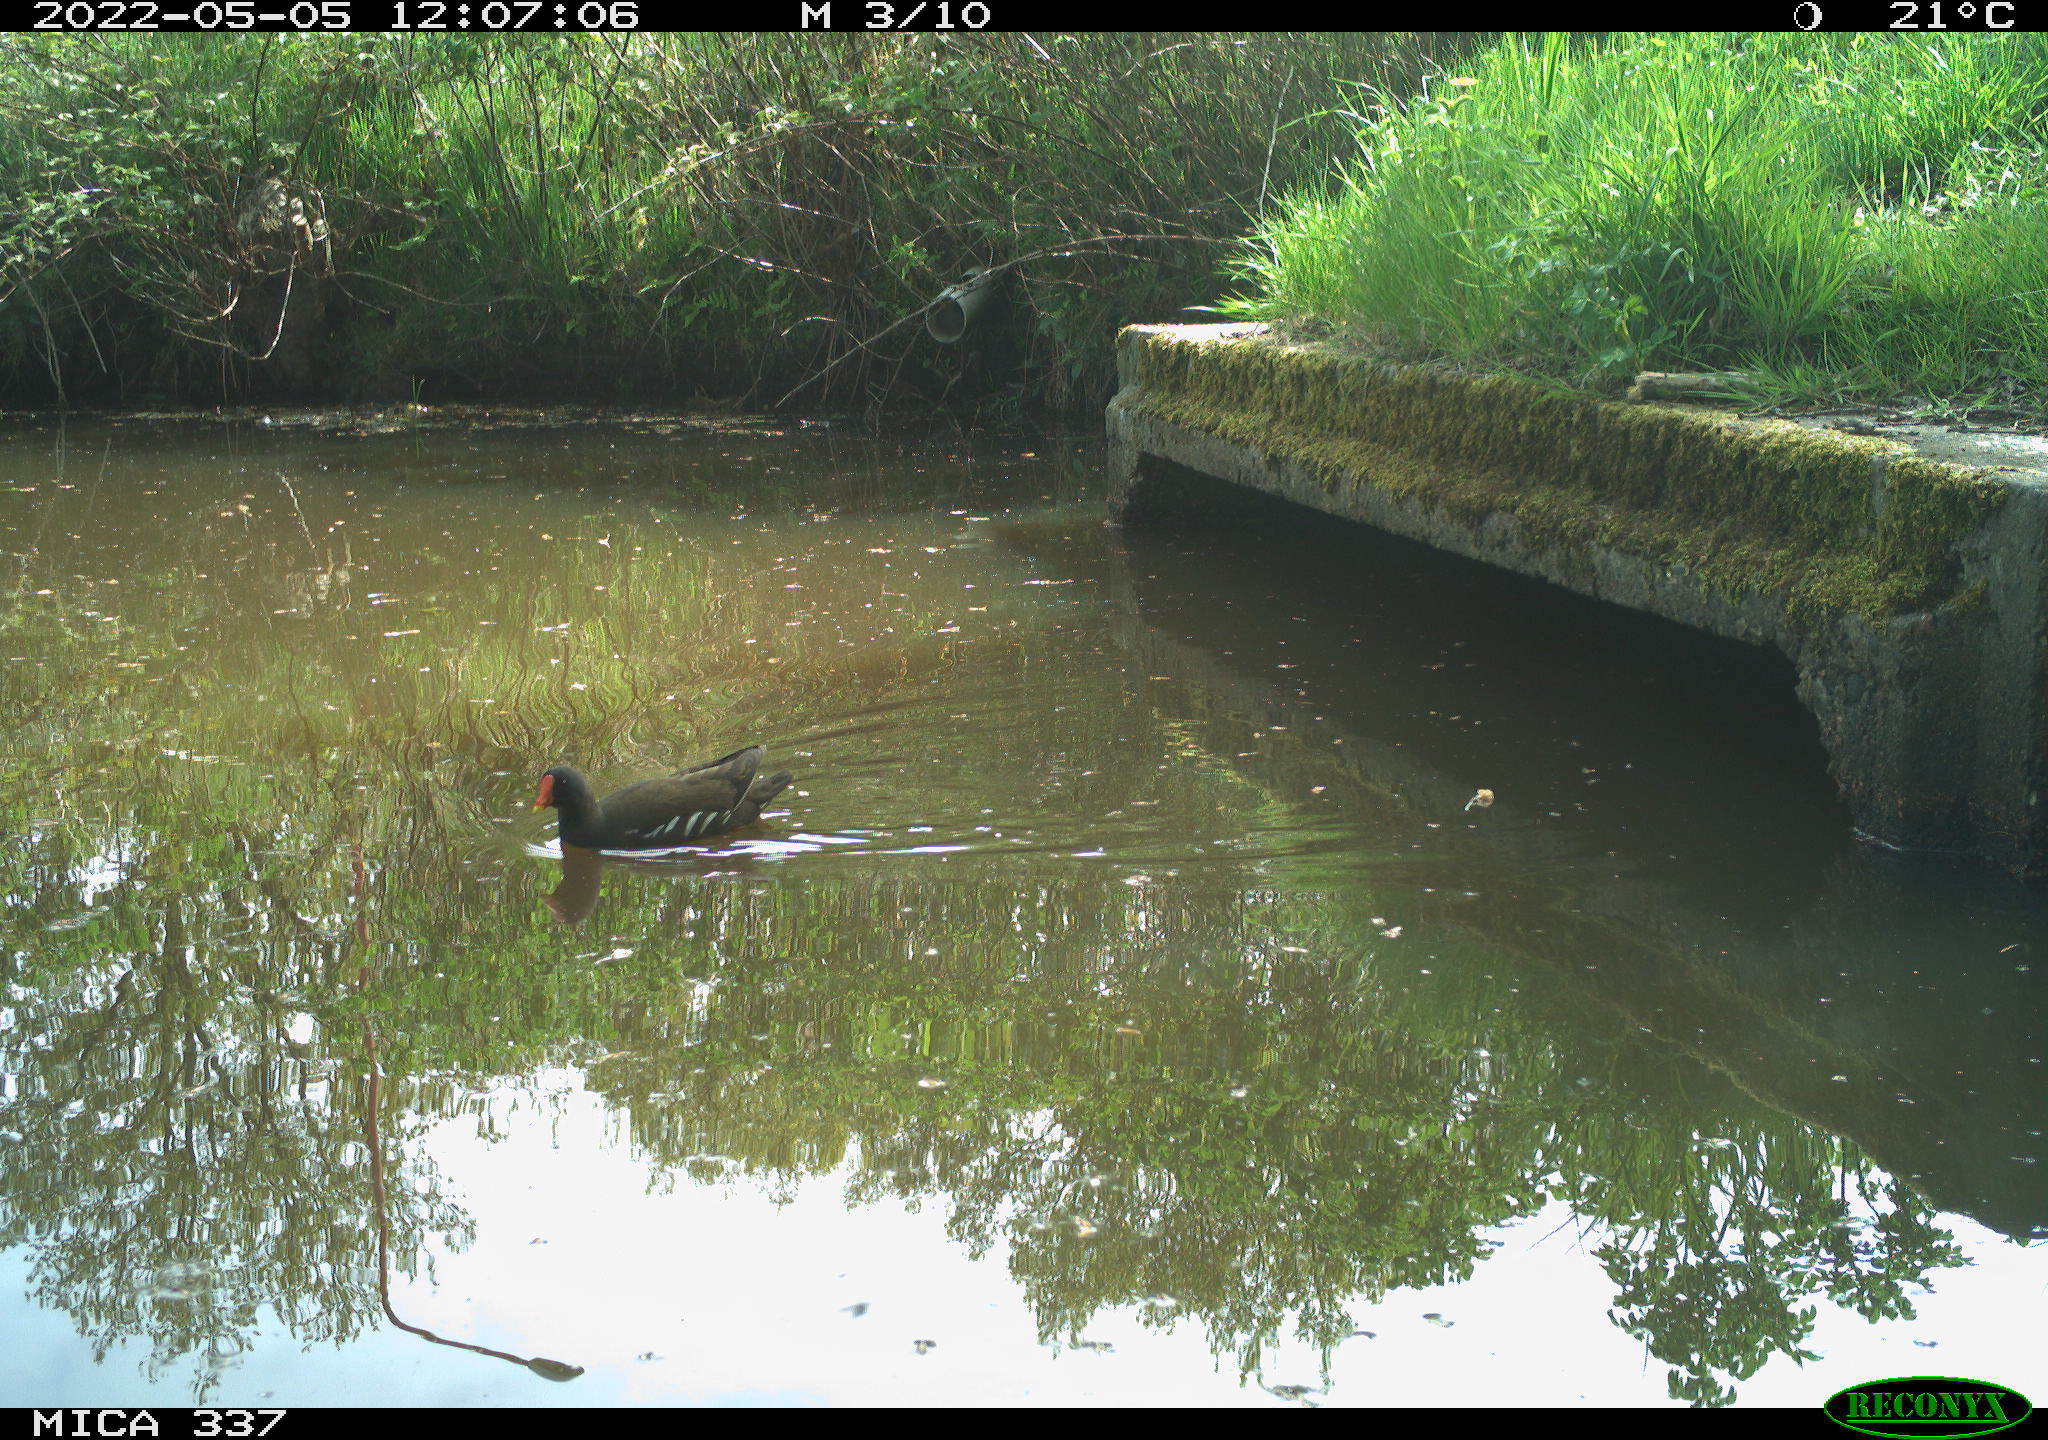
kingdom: Animalia
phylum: Chordata
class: Aves
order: Gruiformes
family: Rallidae
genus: Gallinula
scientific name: Gallinula chloropus
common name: Common moorhen
